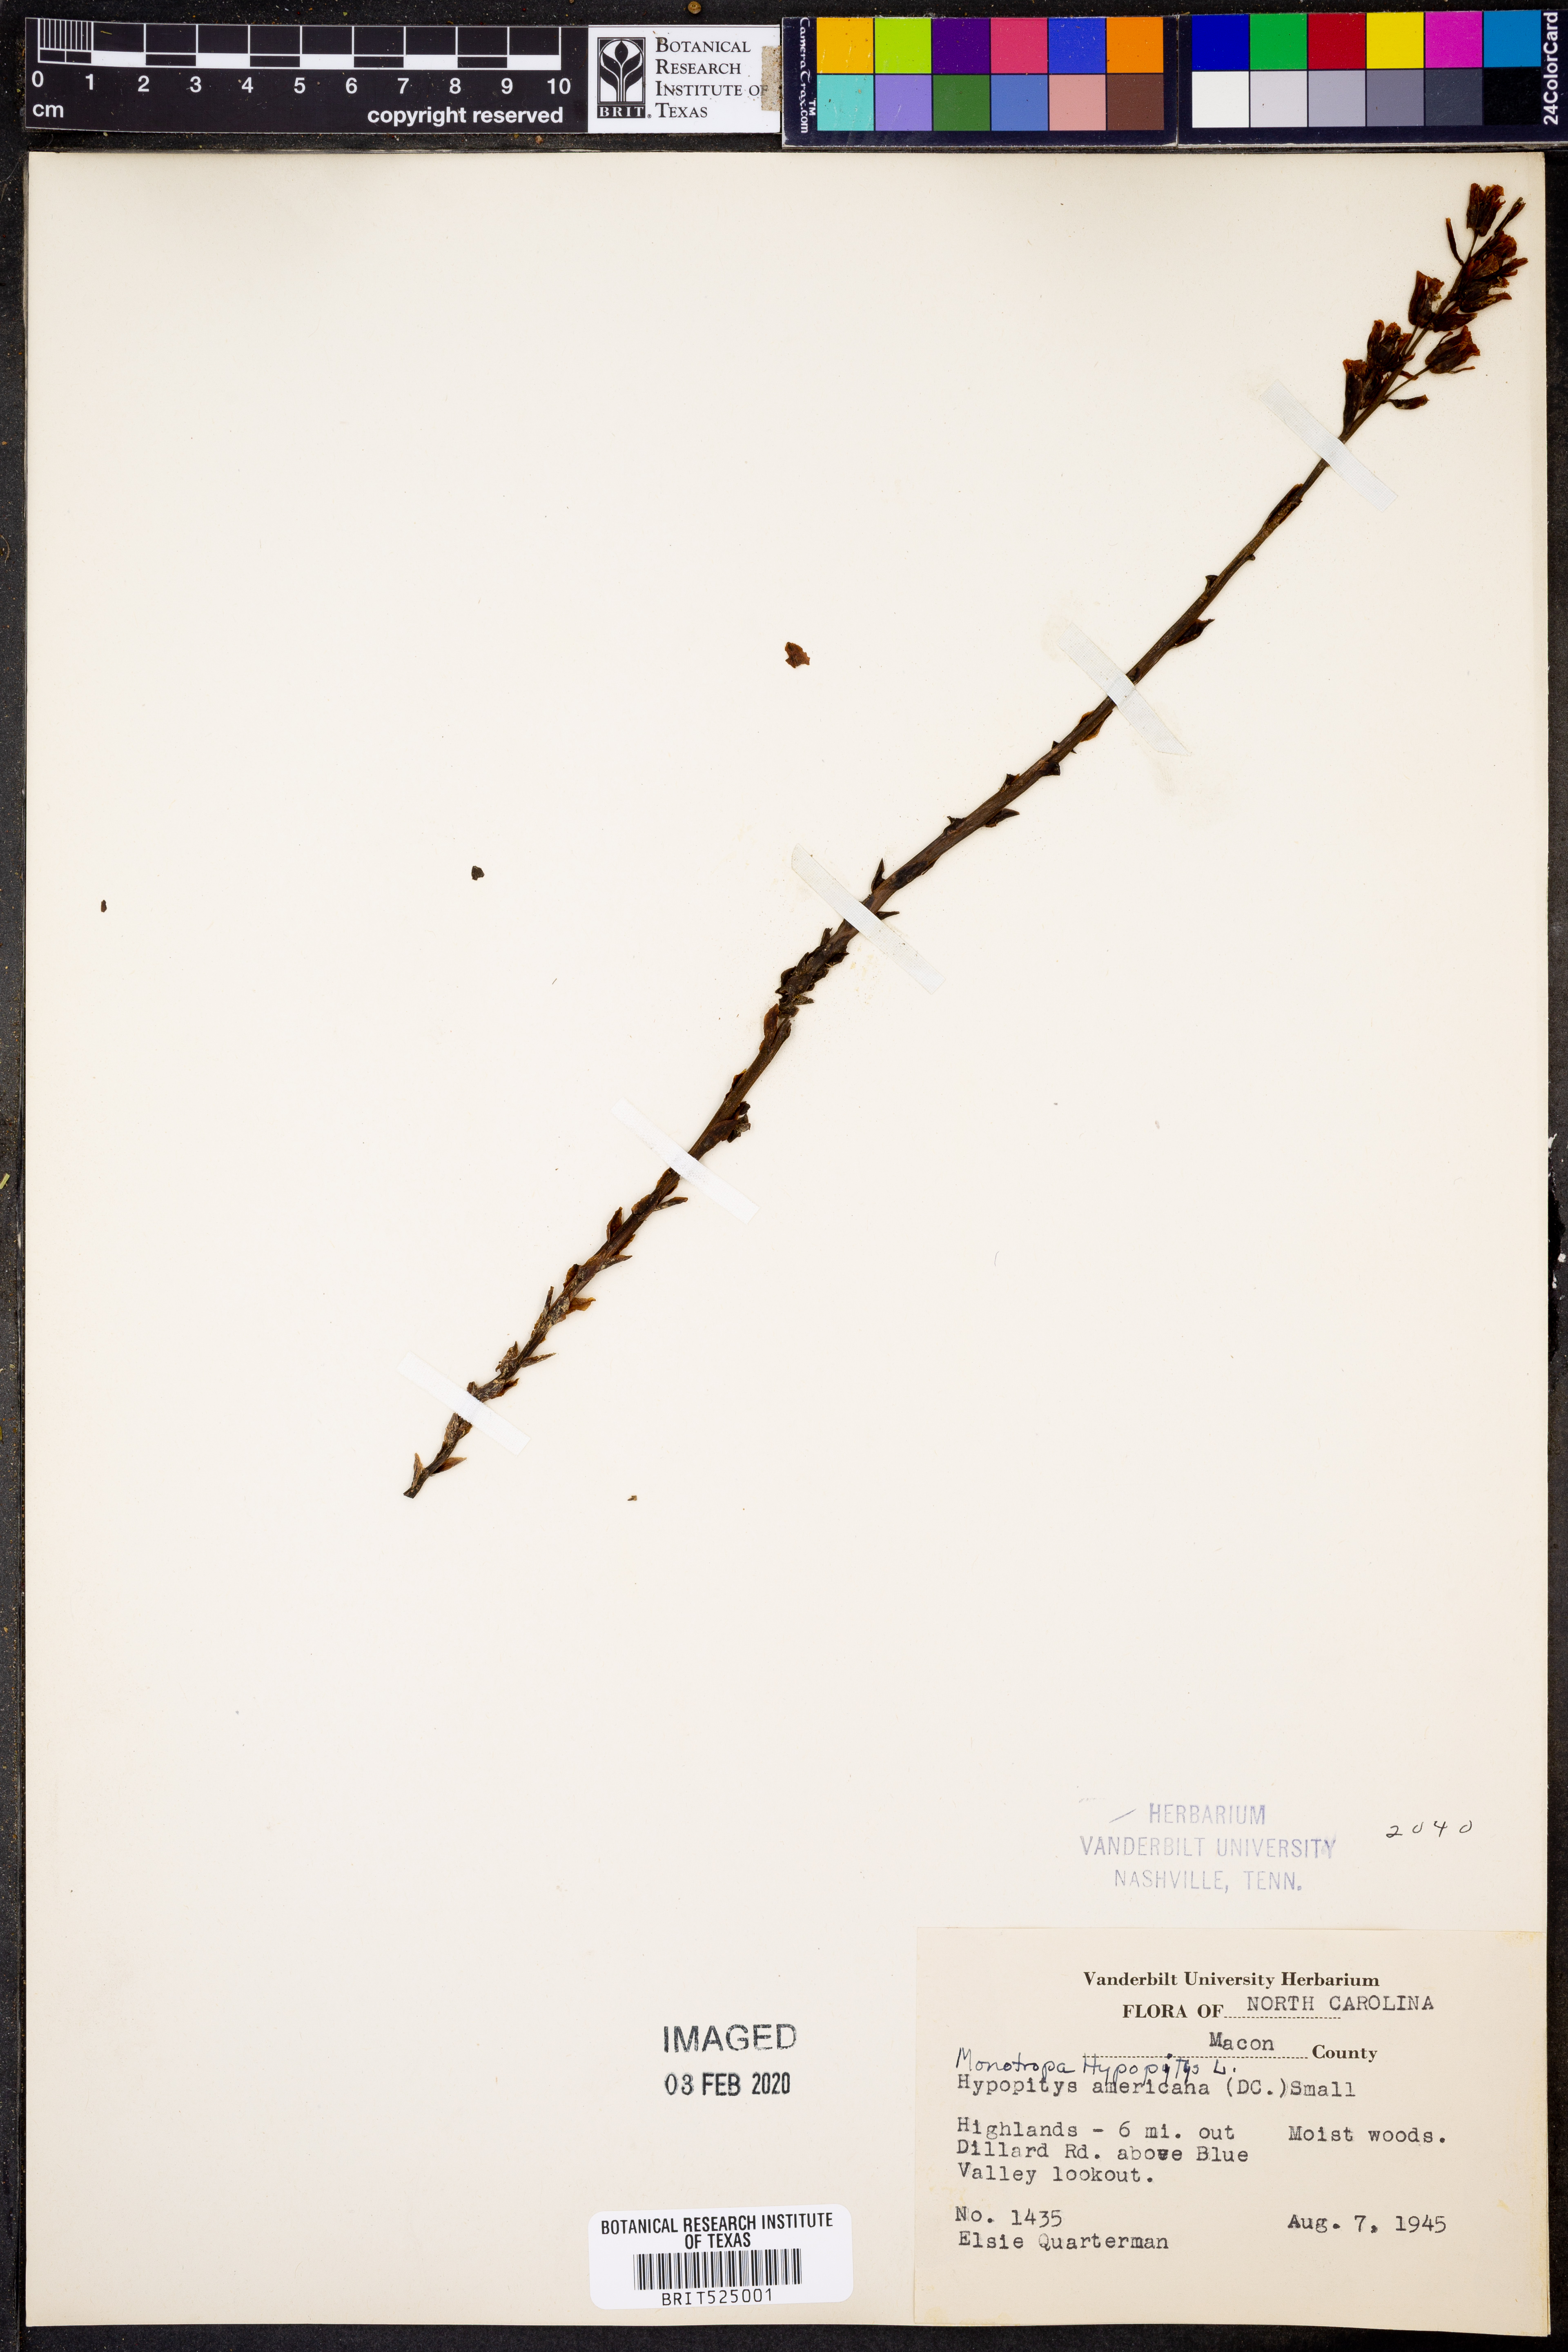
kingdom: Plantae
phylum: Tracheophyta
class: Magnoliopsida
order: Ericales
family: Ericaceae
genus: Hypopitys
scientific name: Hypopitys monotropa
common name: Yellow bird's-nest
